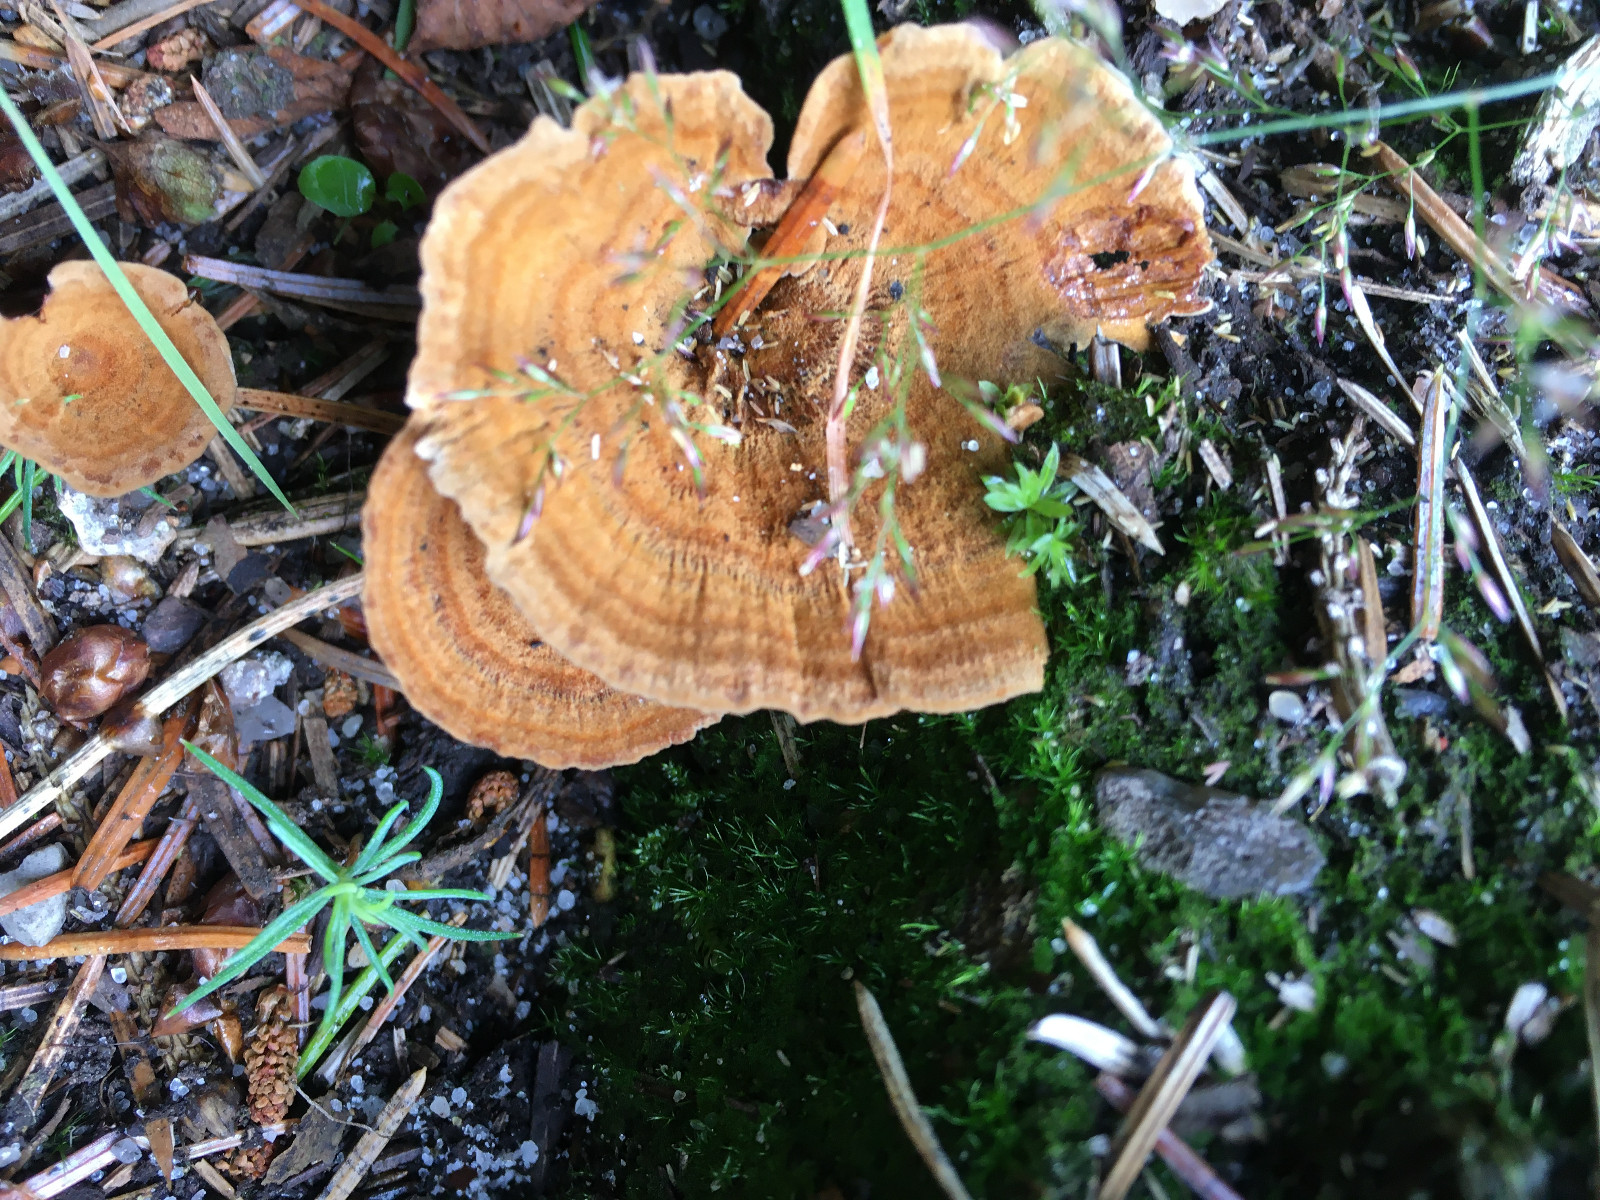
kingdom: Fungi
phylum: Basidiomycota
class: Agaricomycetes
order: Hymenochaetales
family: Hymenochaetaceae
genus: Coltricia
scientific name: Coltricia perennis
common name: almindelig sandporesvamp
